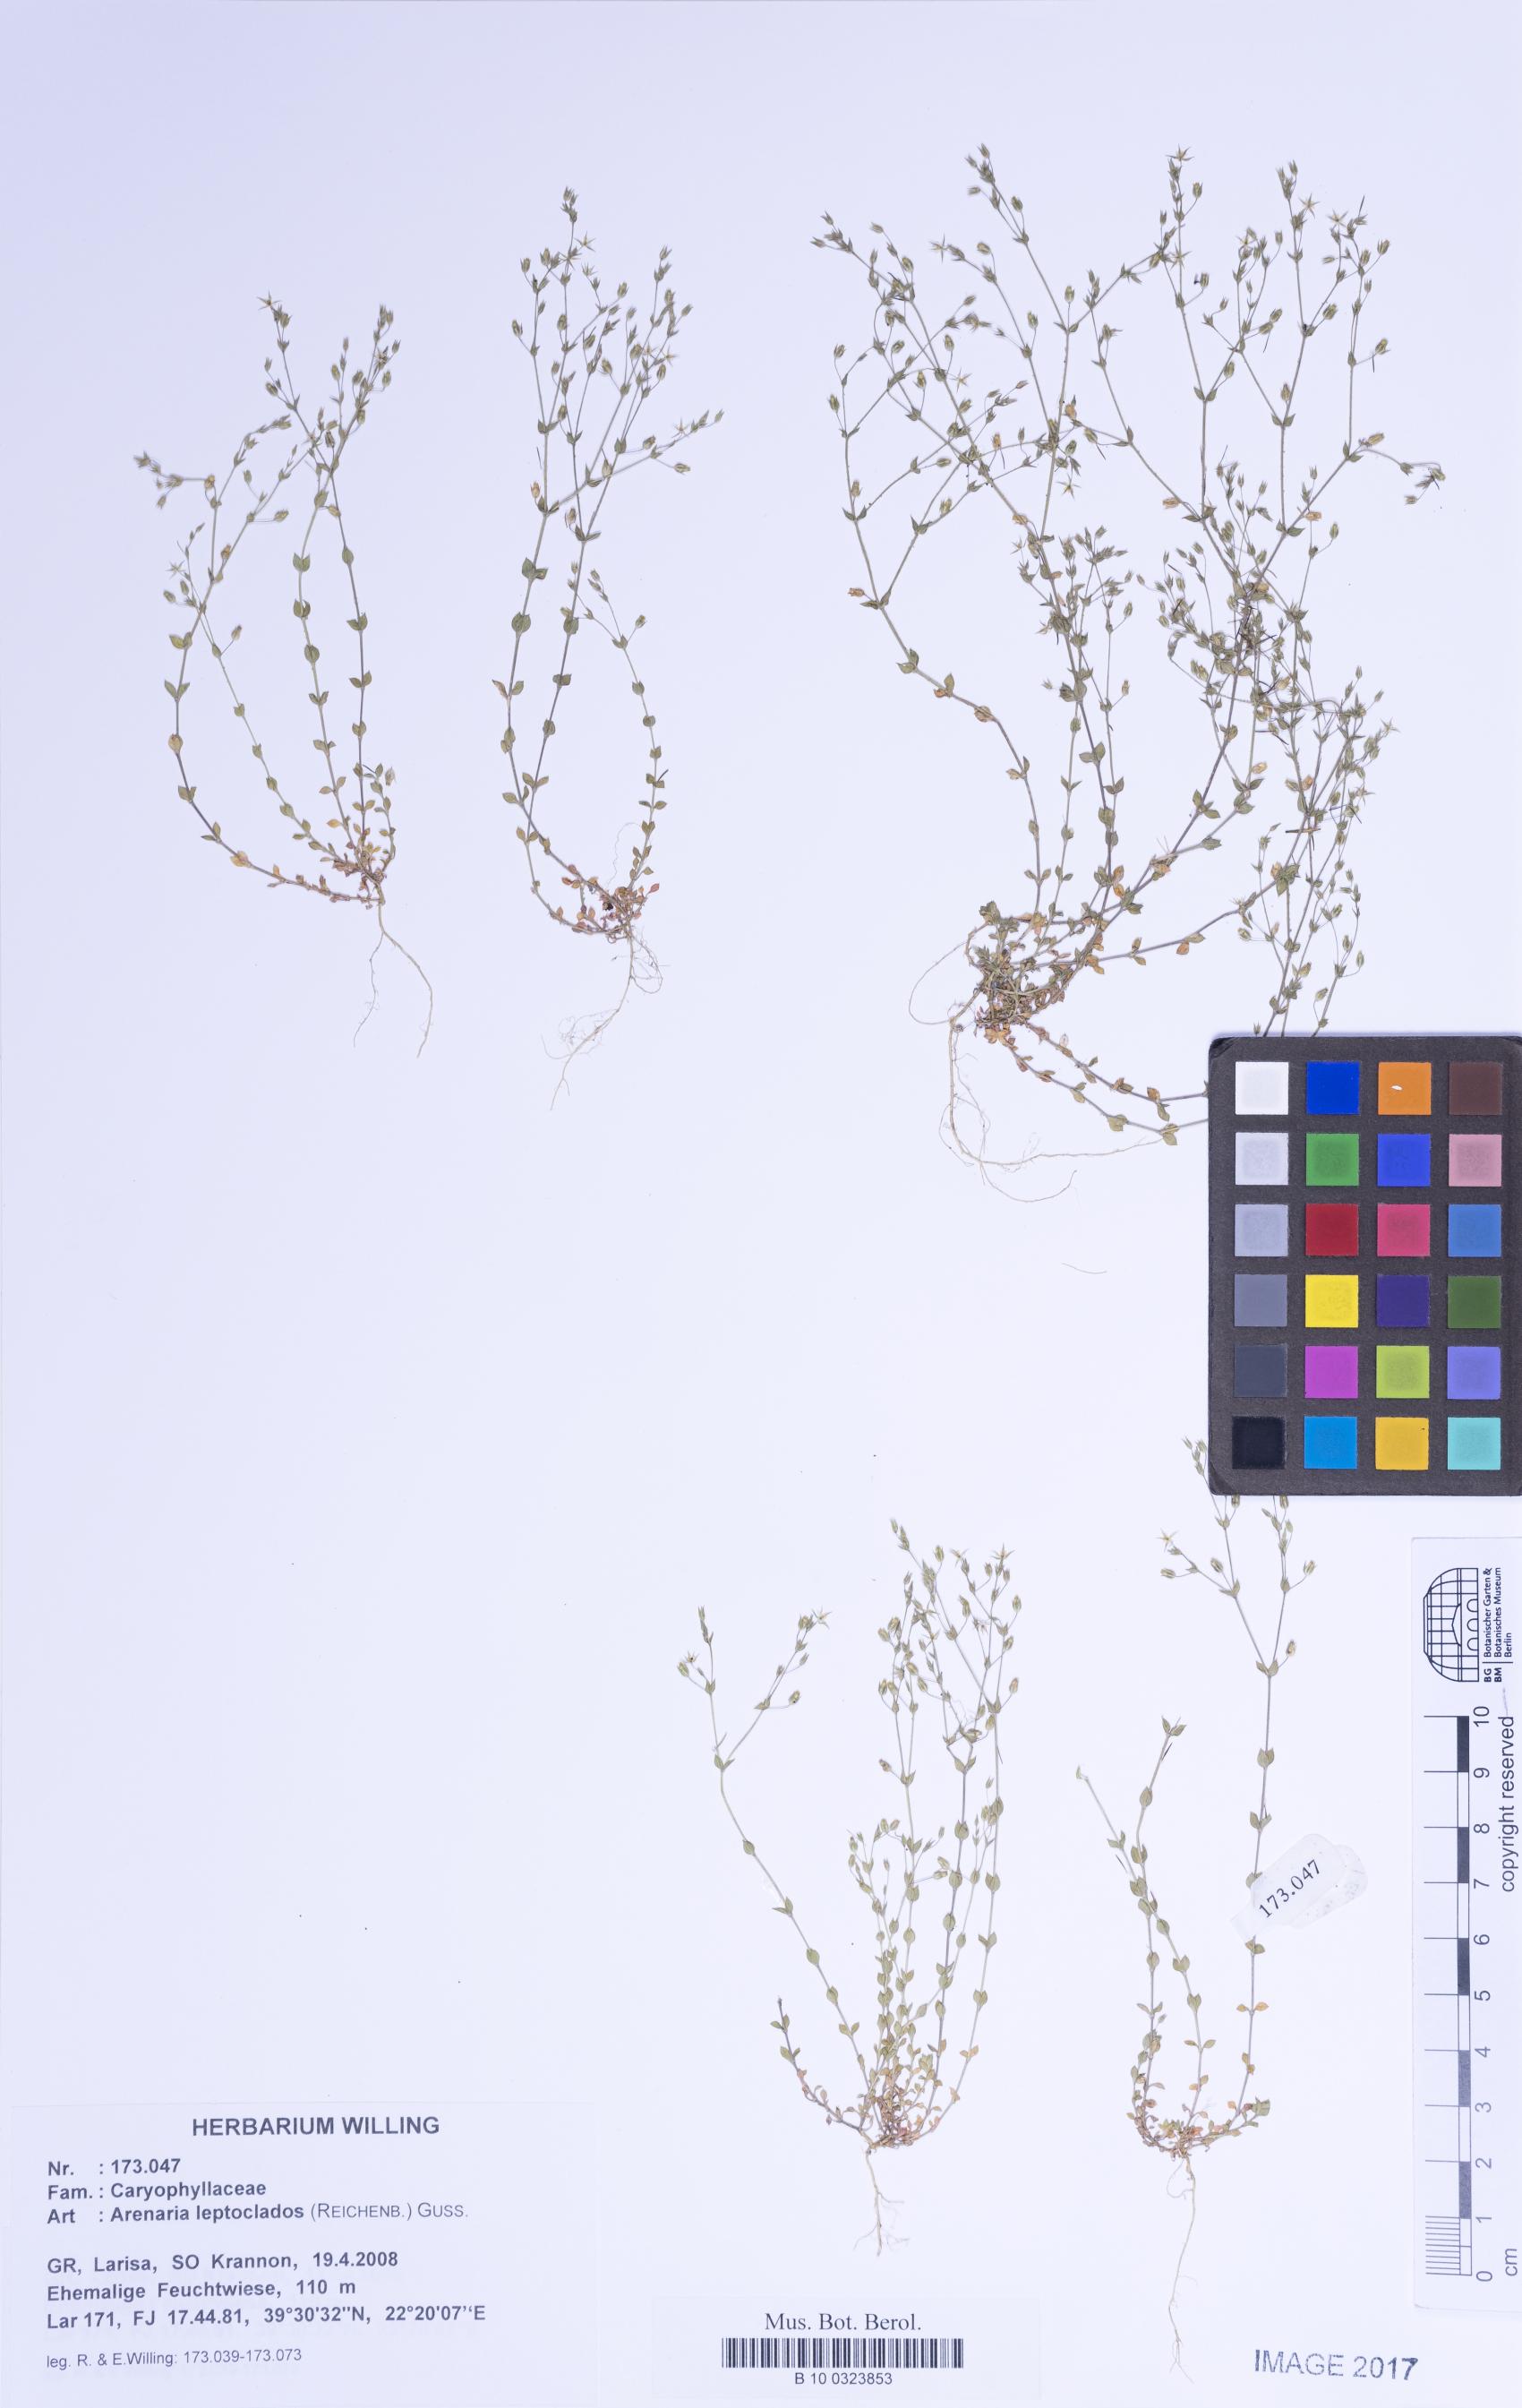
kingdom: Plantae
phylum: Tracheophyta
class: Magnoliopsida
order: Caryophyllales
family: Caryophyllaceae
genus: Arenaria
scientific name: Arenaria leptoclados
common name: Thyme-leaved sandwort
